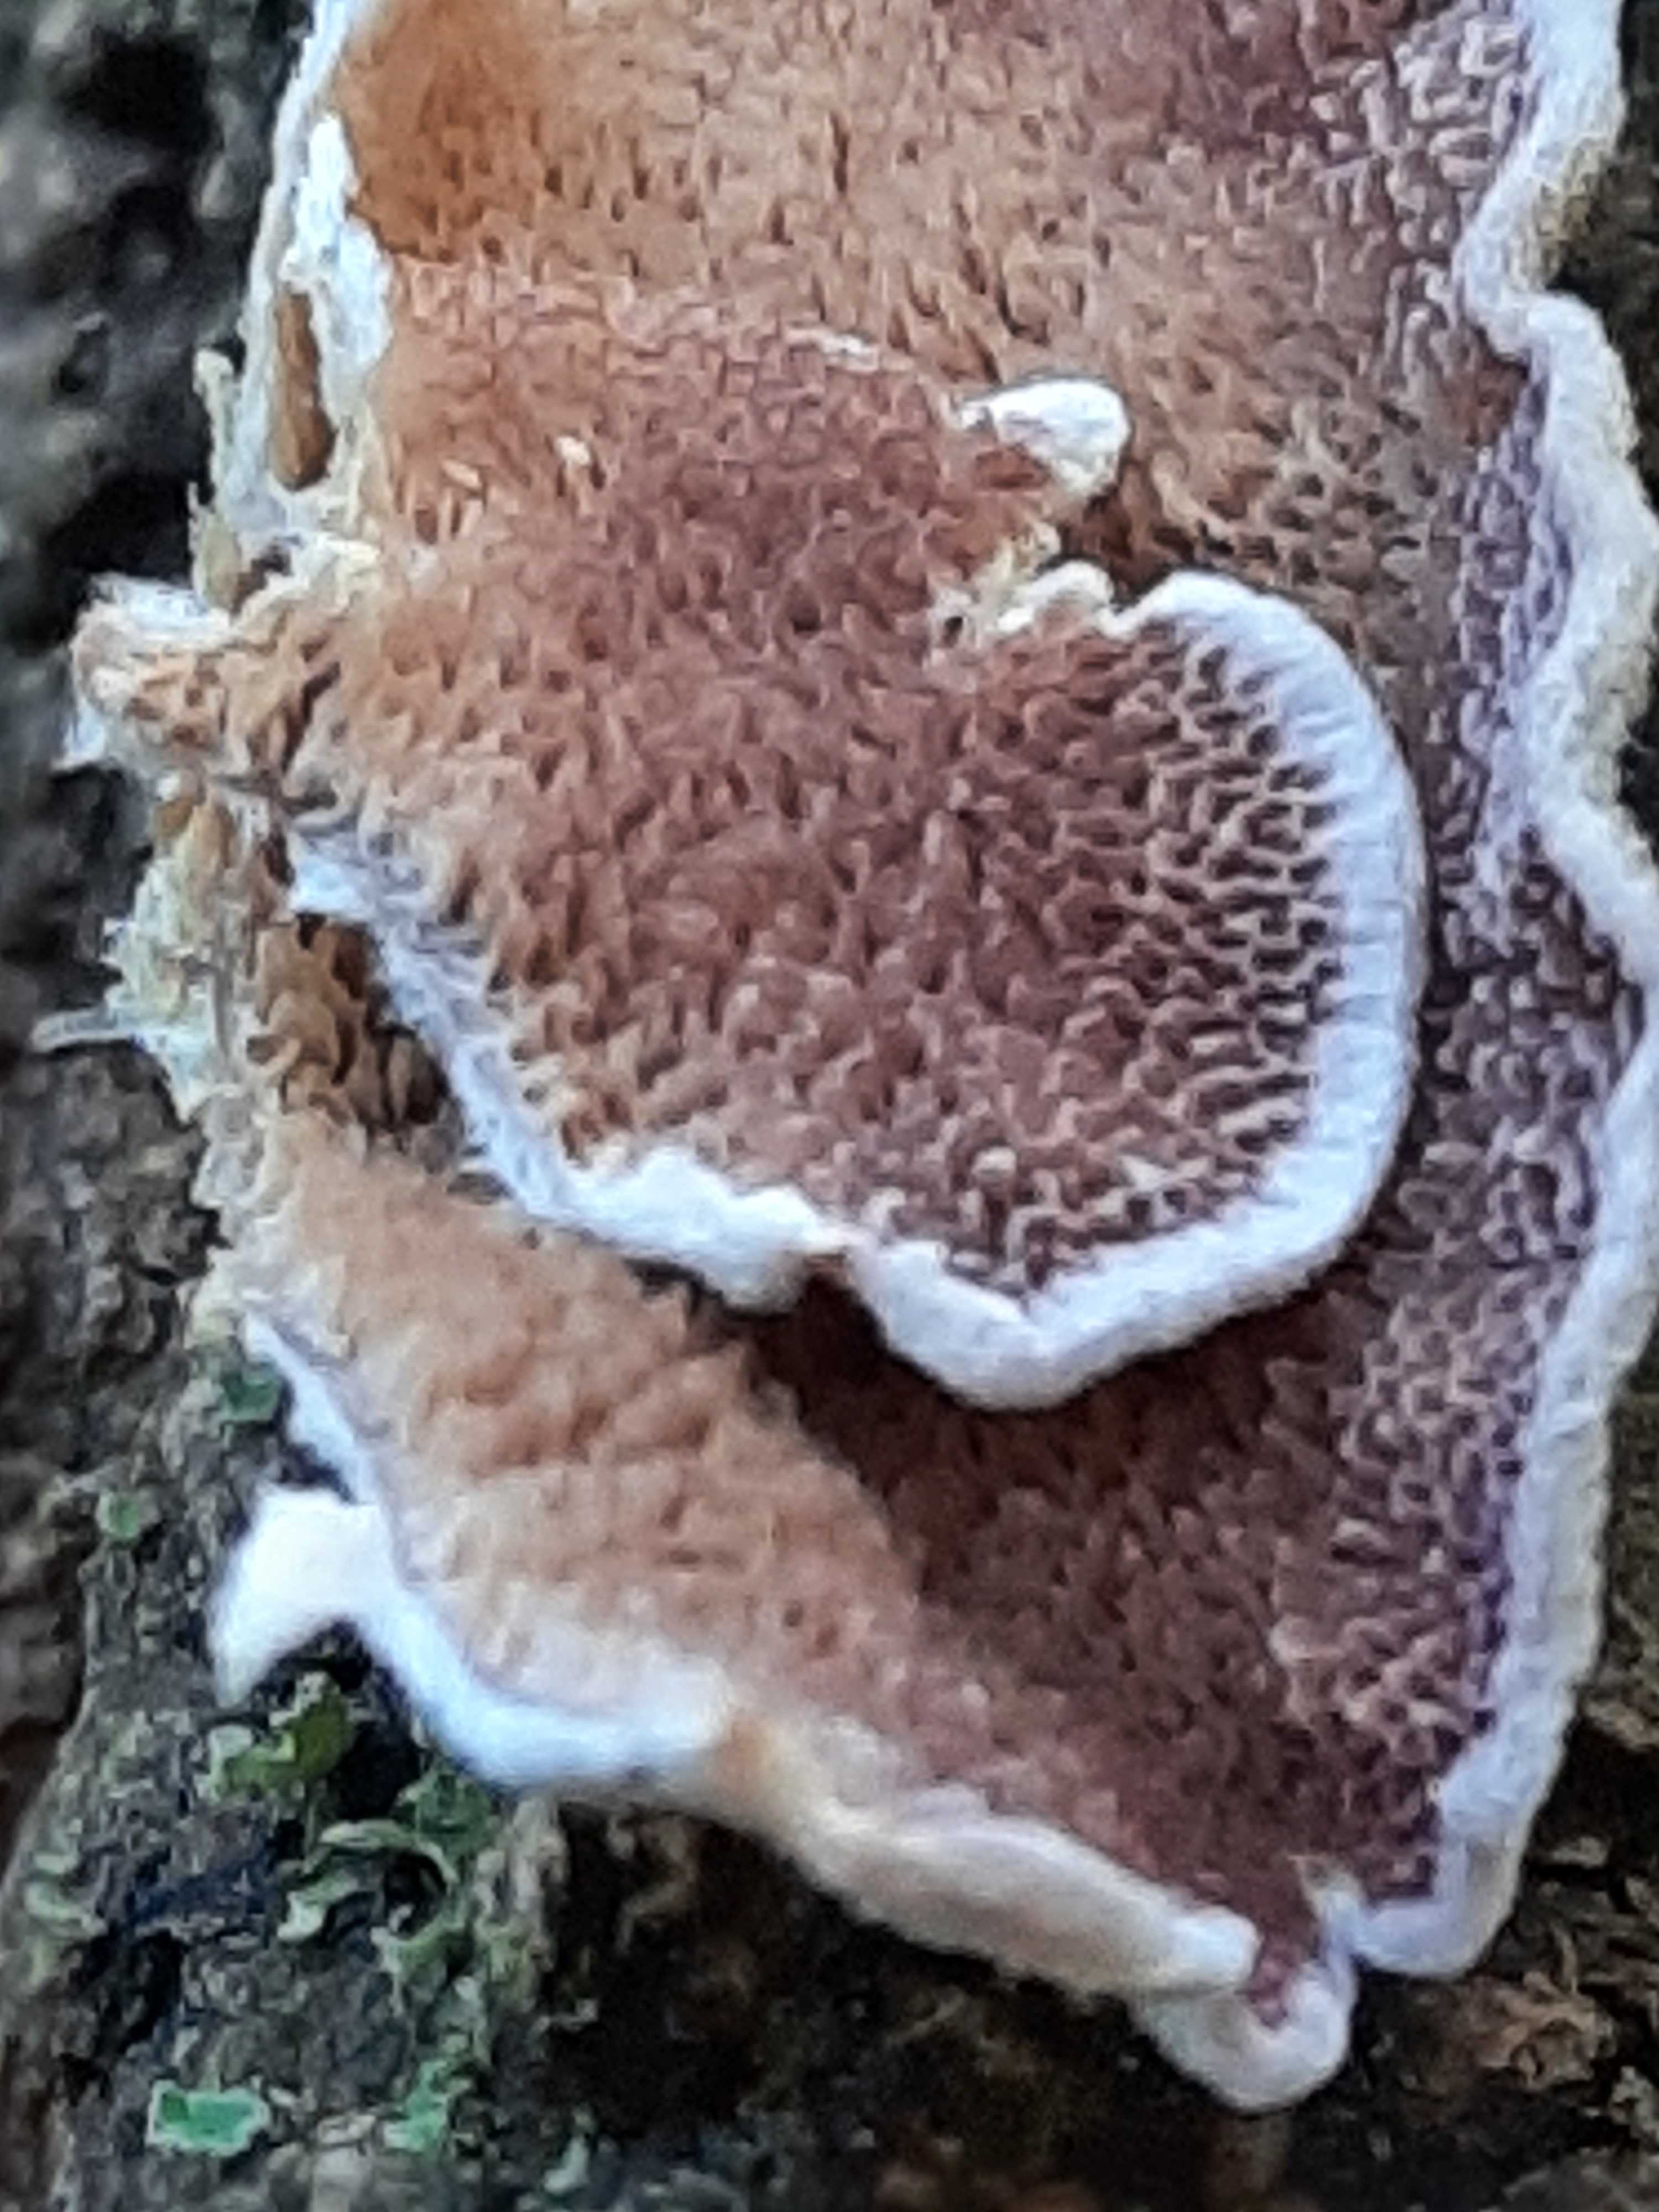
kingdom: Fungi
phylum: Basidiomycota
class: Agaricomycetes
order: Hymenochaetales
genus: Trichaptum
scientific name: Trichaptum fuscoviolaceum
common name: tandet violporesvamp
